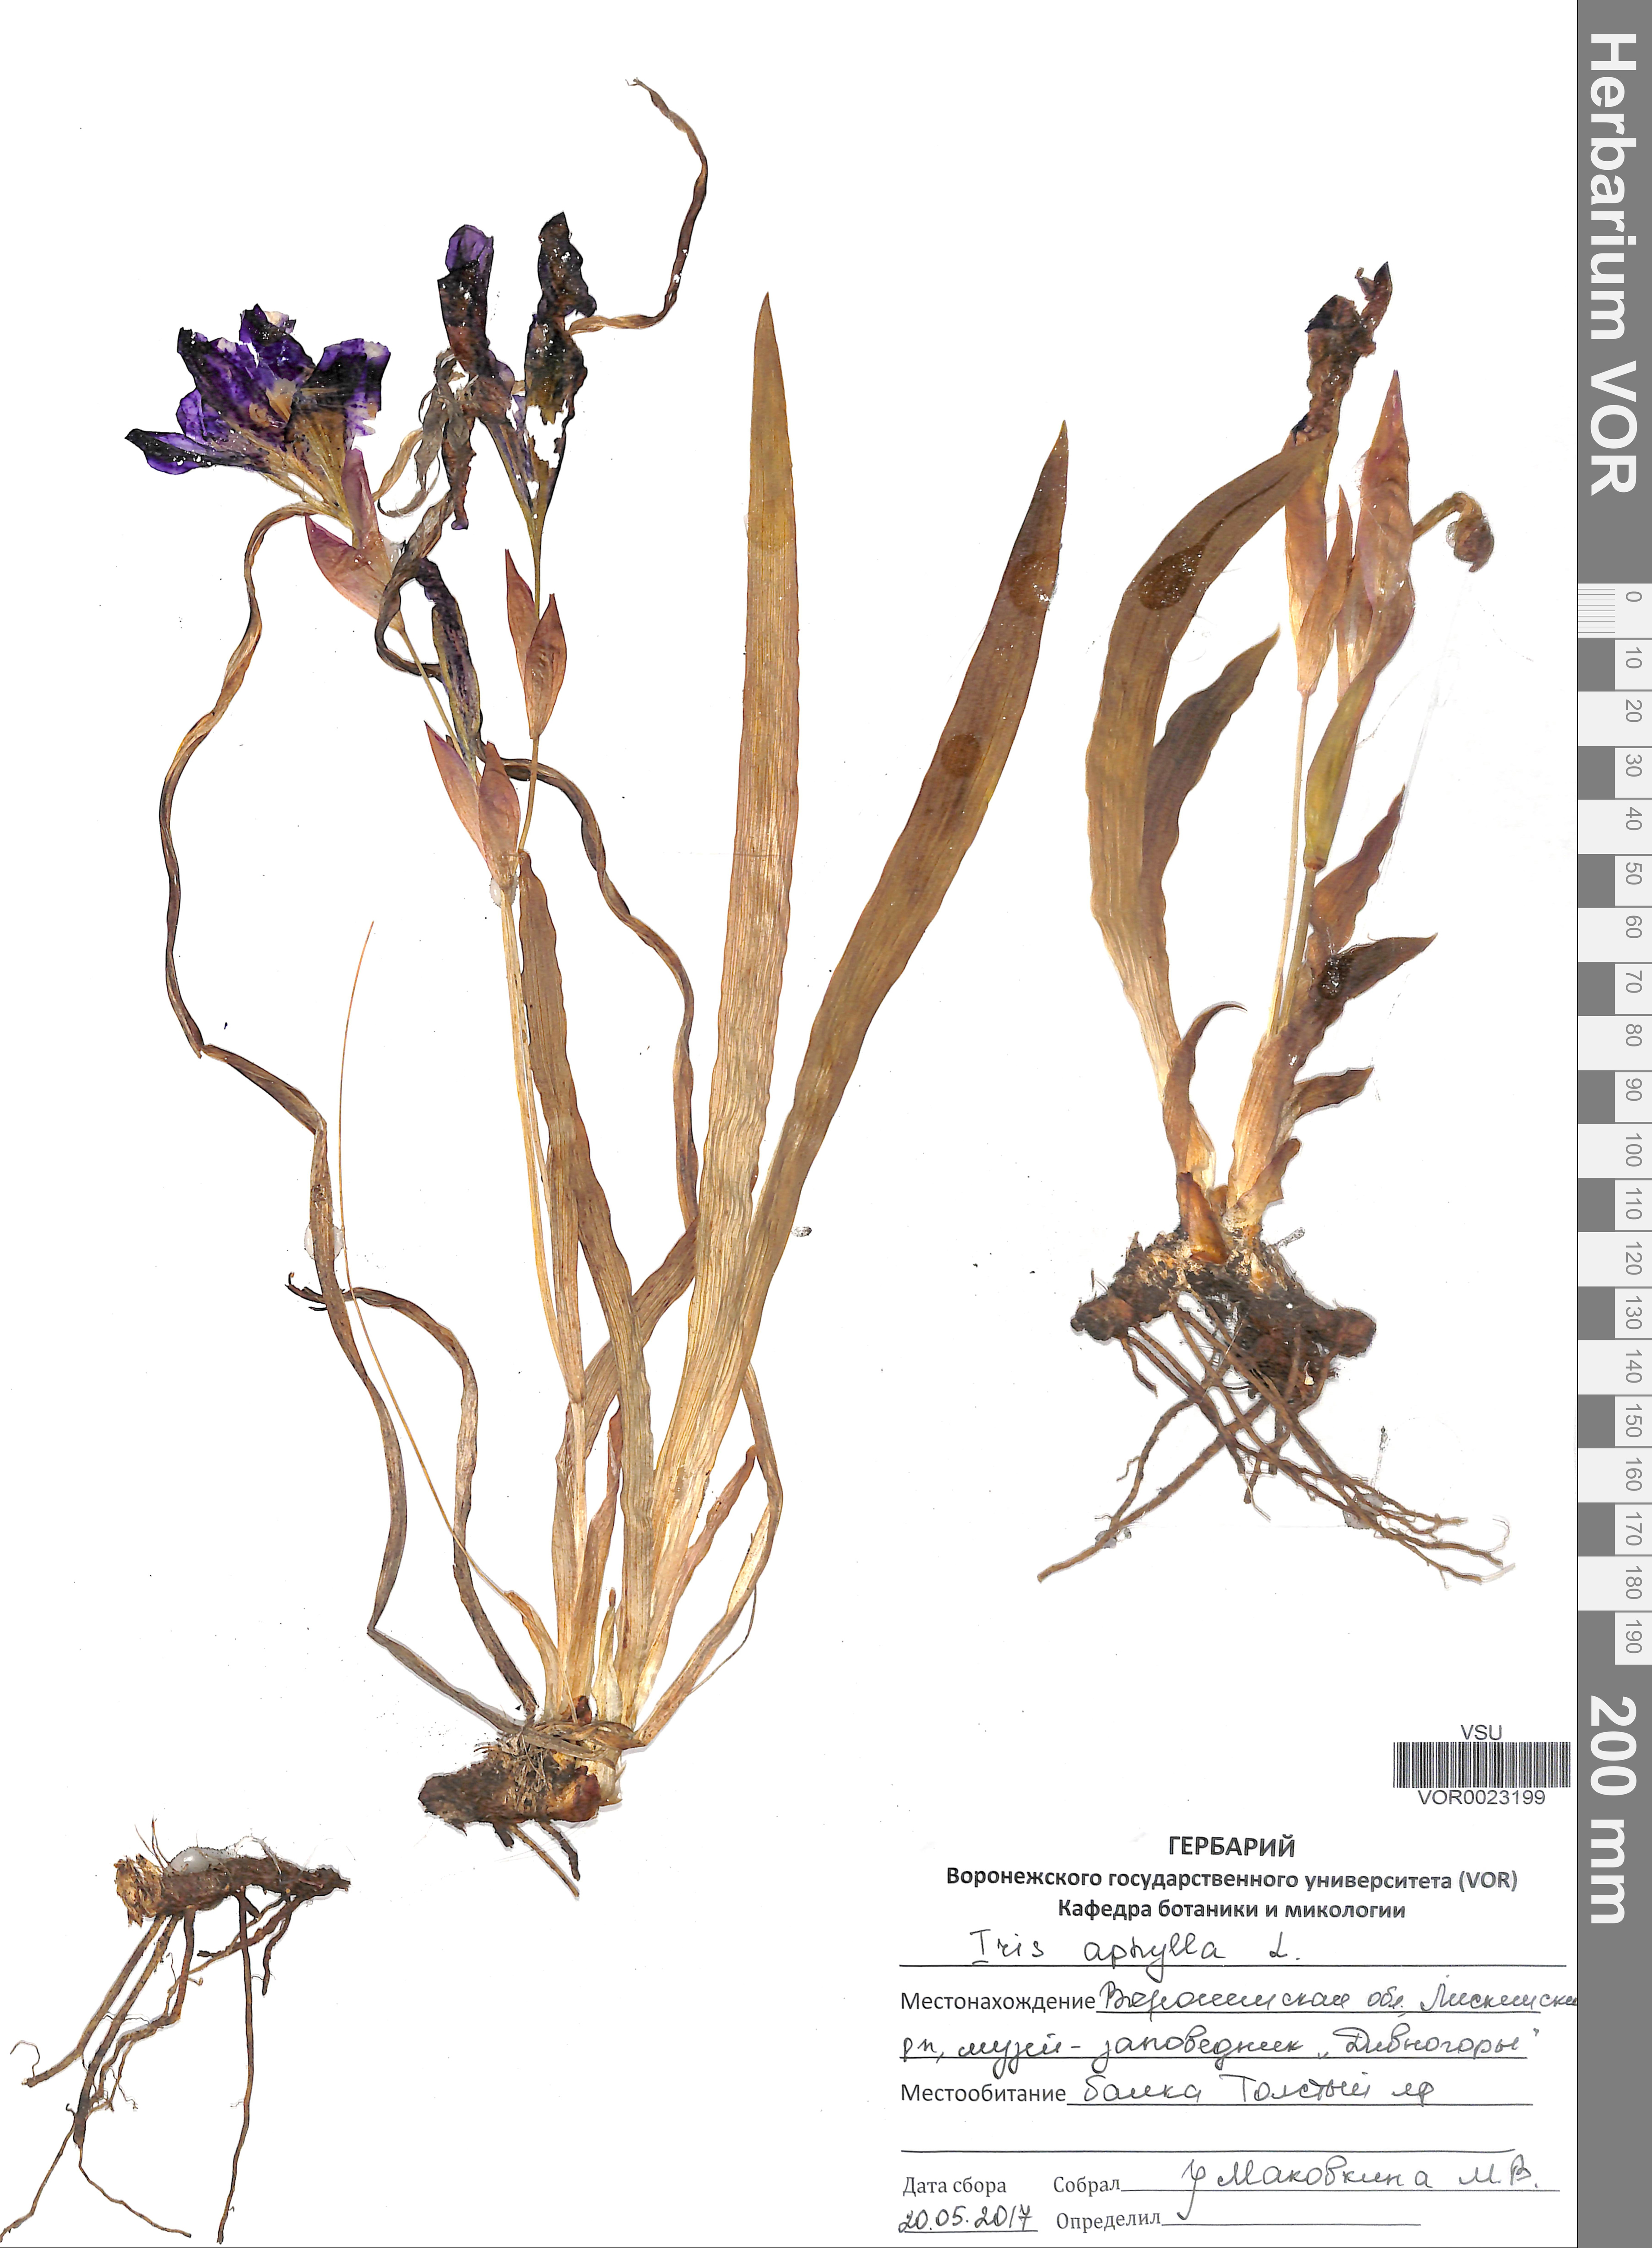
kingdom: Plantae
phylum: Tracheophyta
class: Liliopsida
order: Asparagales
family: Iridaceae
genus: Iris
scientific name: Iris aphylla
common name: Stool iris
